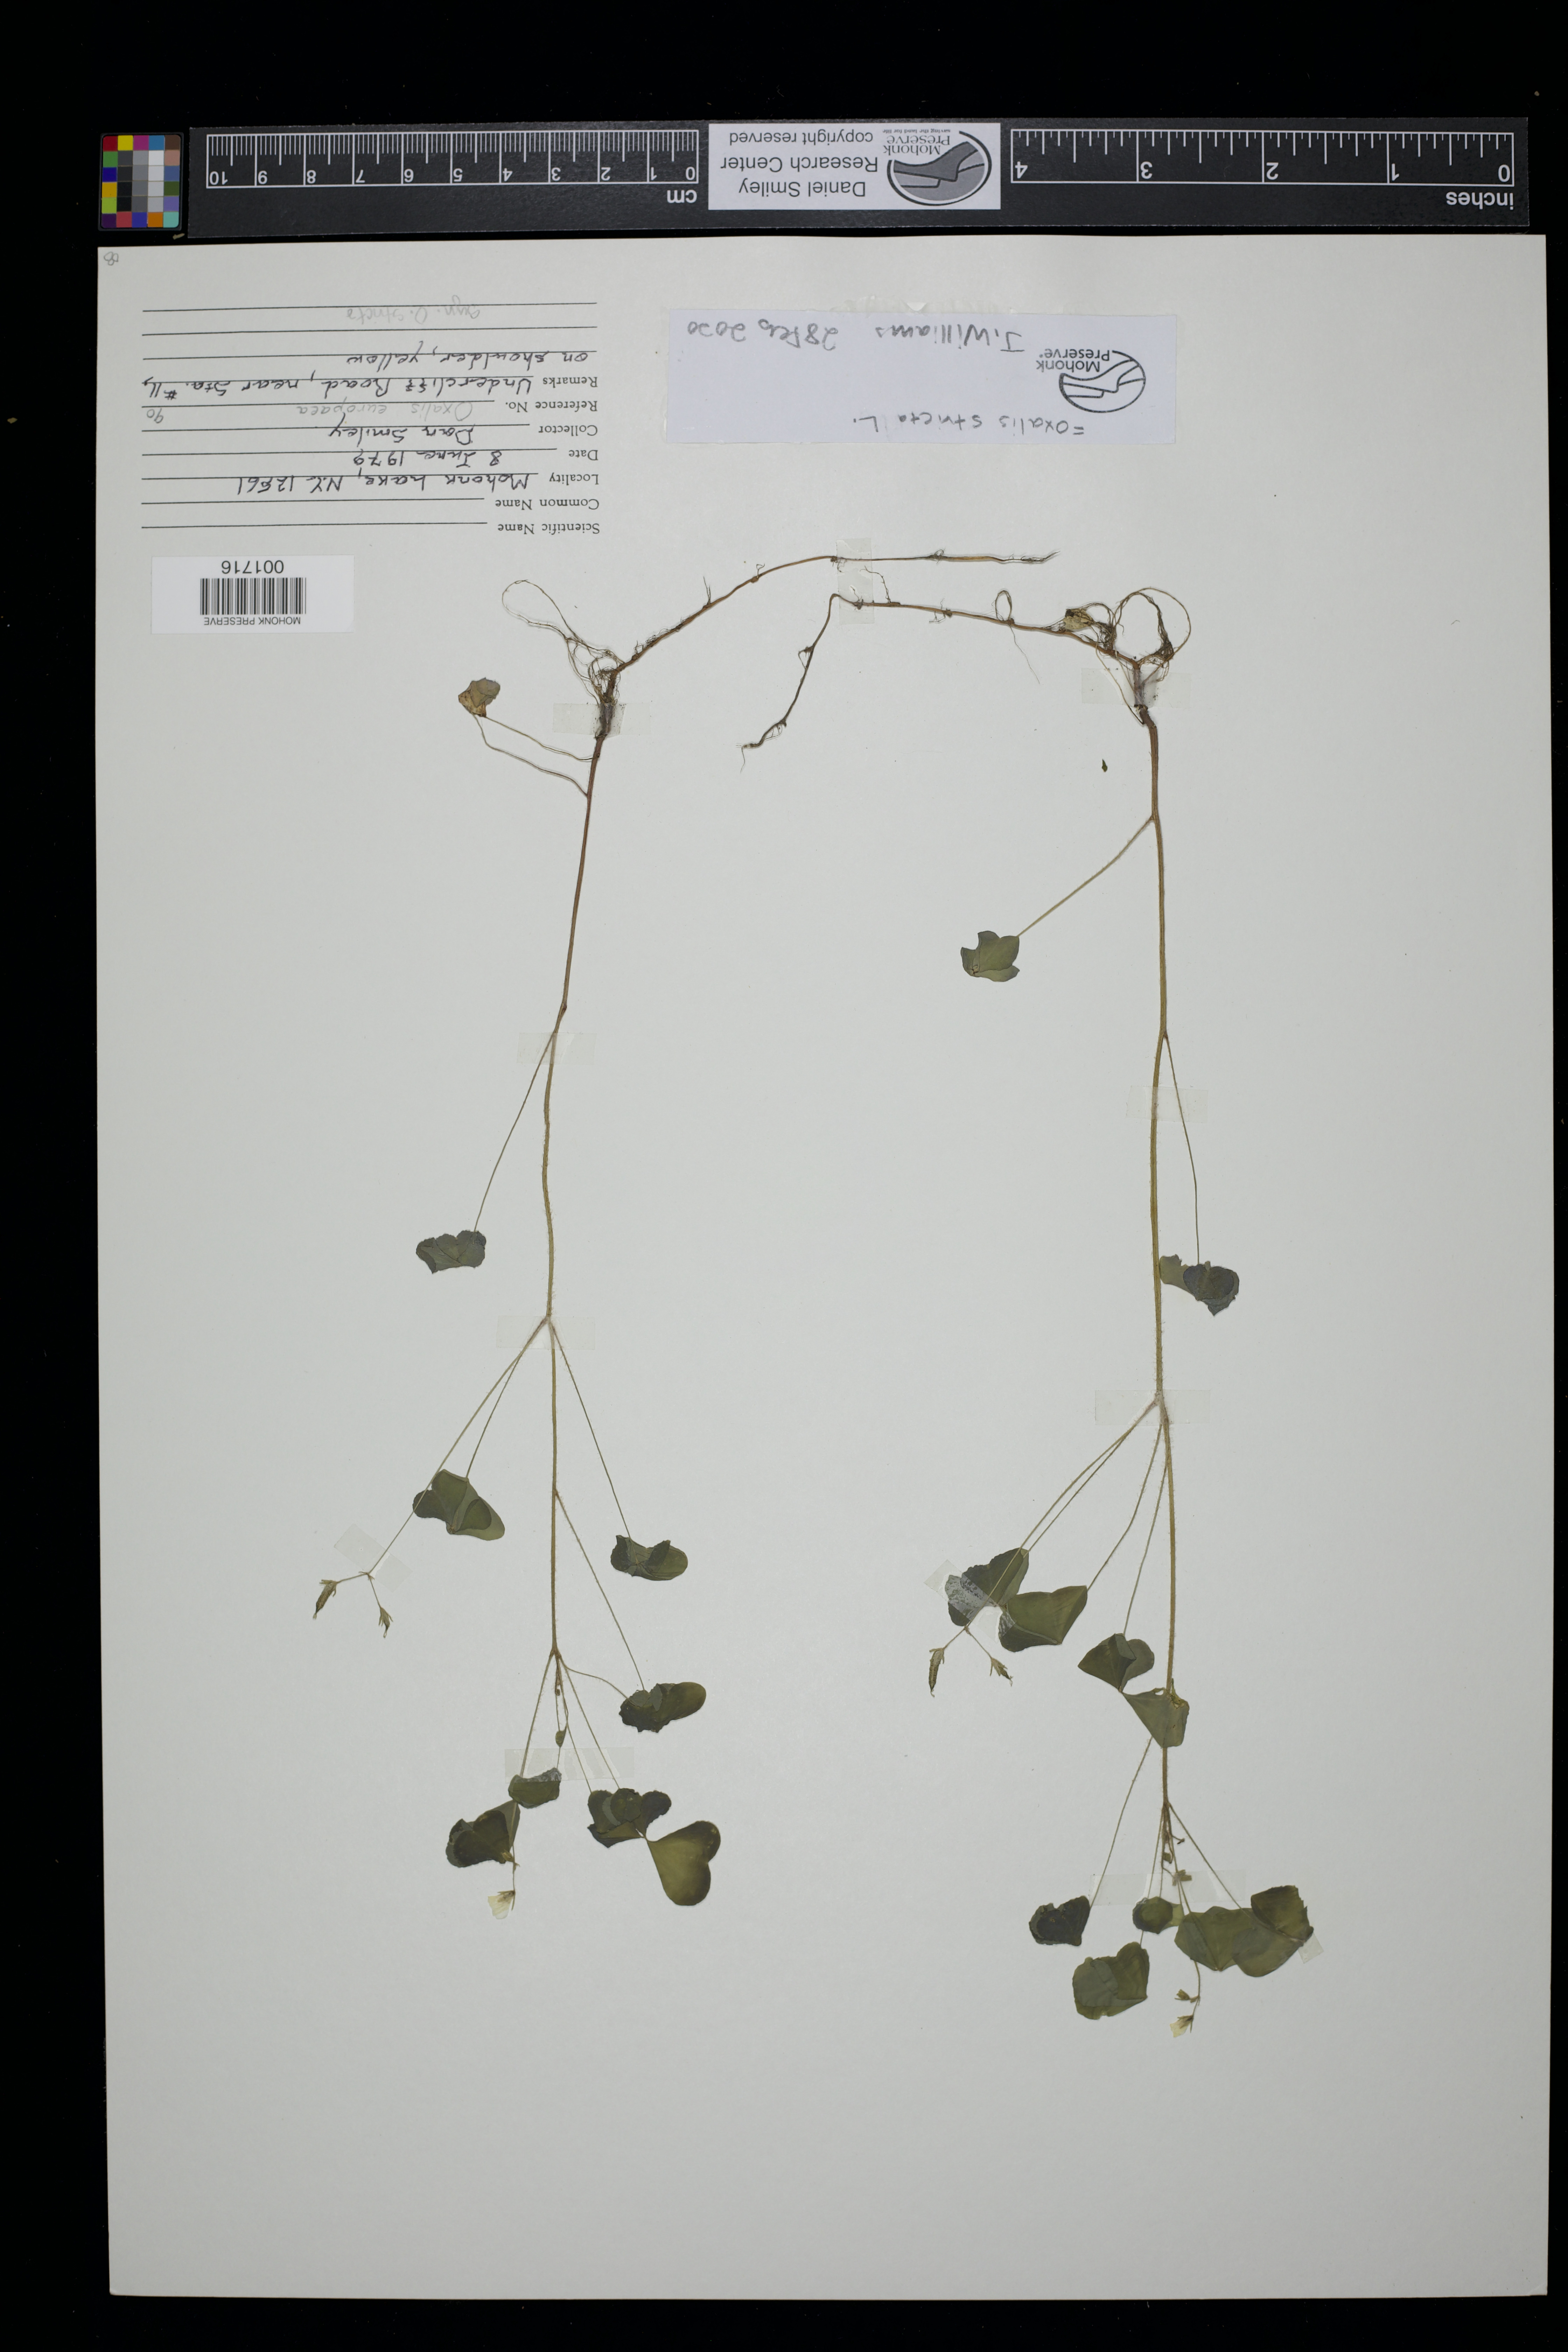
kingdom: Plantae
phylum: Tracheophyta
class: Magnoliopsida
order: Oxalidales
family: Oxalidaceae
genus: Oxalis
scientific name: Oxalis stricta
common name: Upright yellow-sorrel
